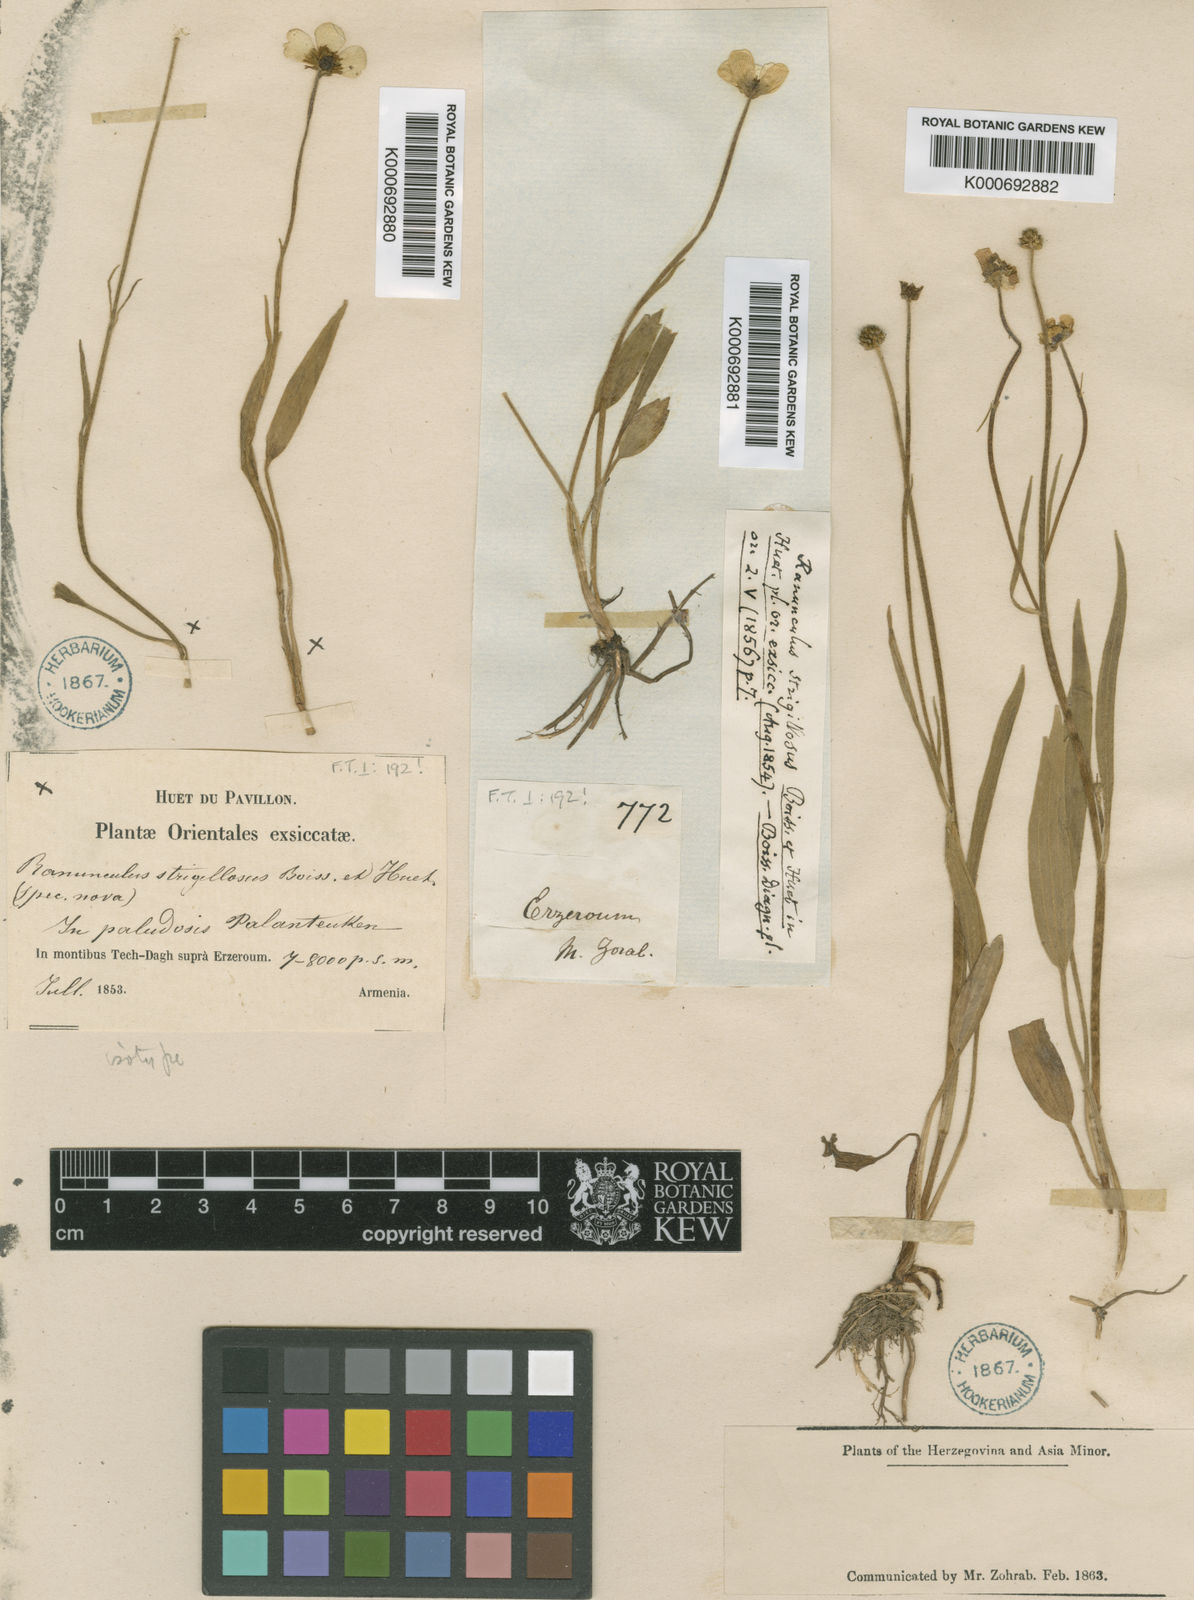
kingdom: Plantae
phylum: Tracheophyta
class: Magnoliopsida
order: Ranunculales
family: Ranunculaceae
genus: Ranunculus
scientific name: Ranunculus strigillosus
